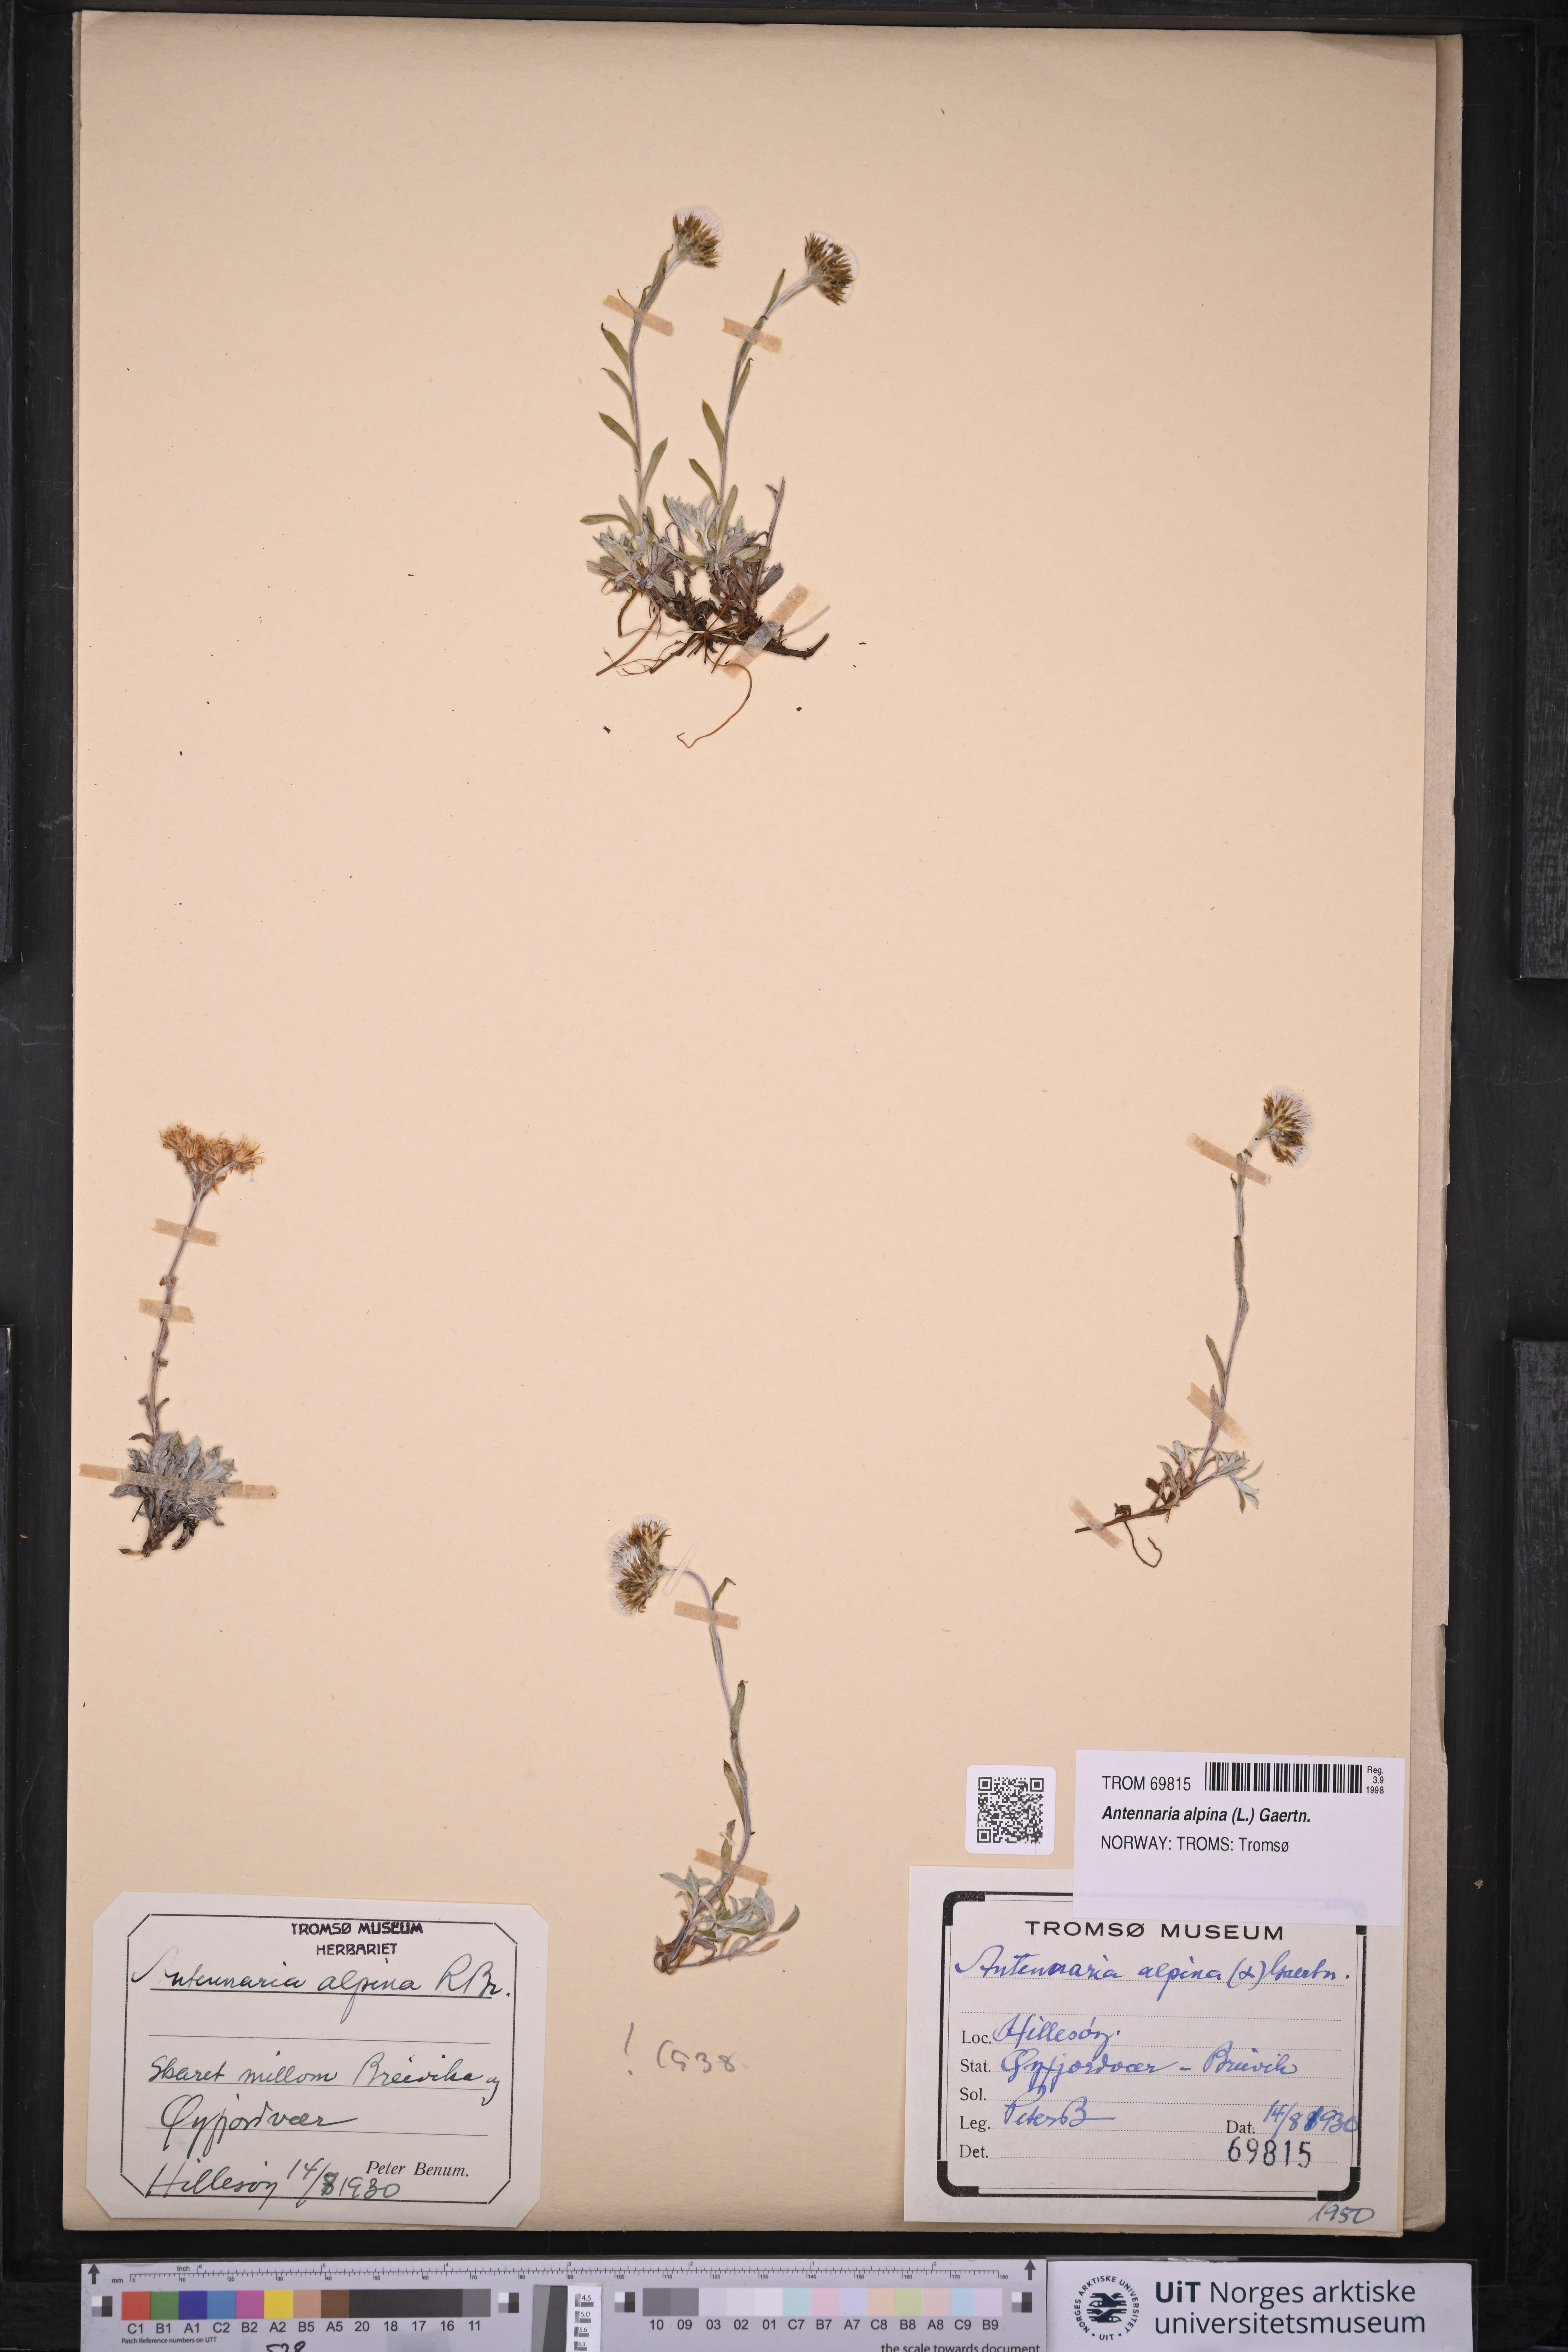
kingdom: Plantae
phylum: Tracheophyta
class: Magnoliopsida
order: Asterales
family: Asteraceae
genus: Antennaria
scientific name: Antennaria alpina
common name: Alpine pussytoes
